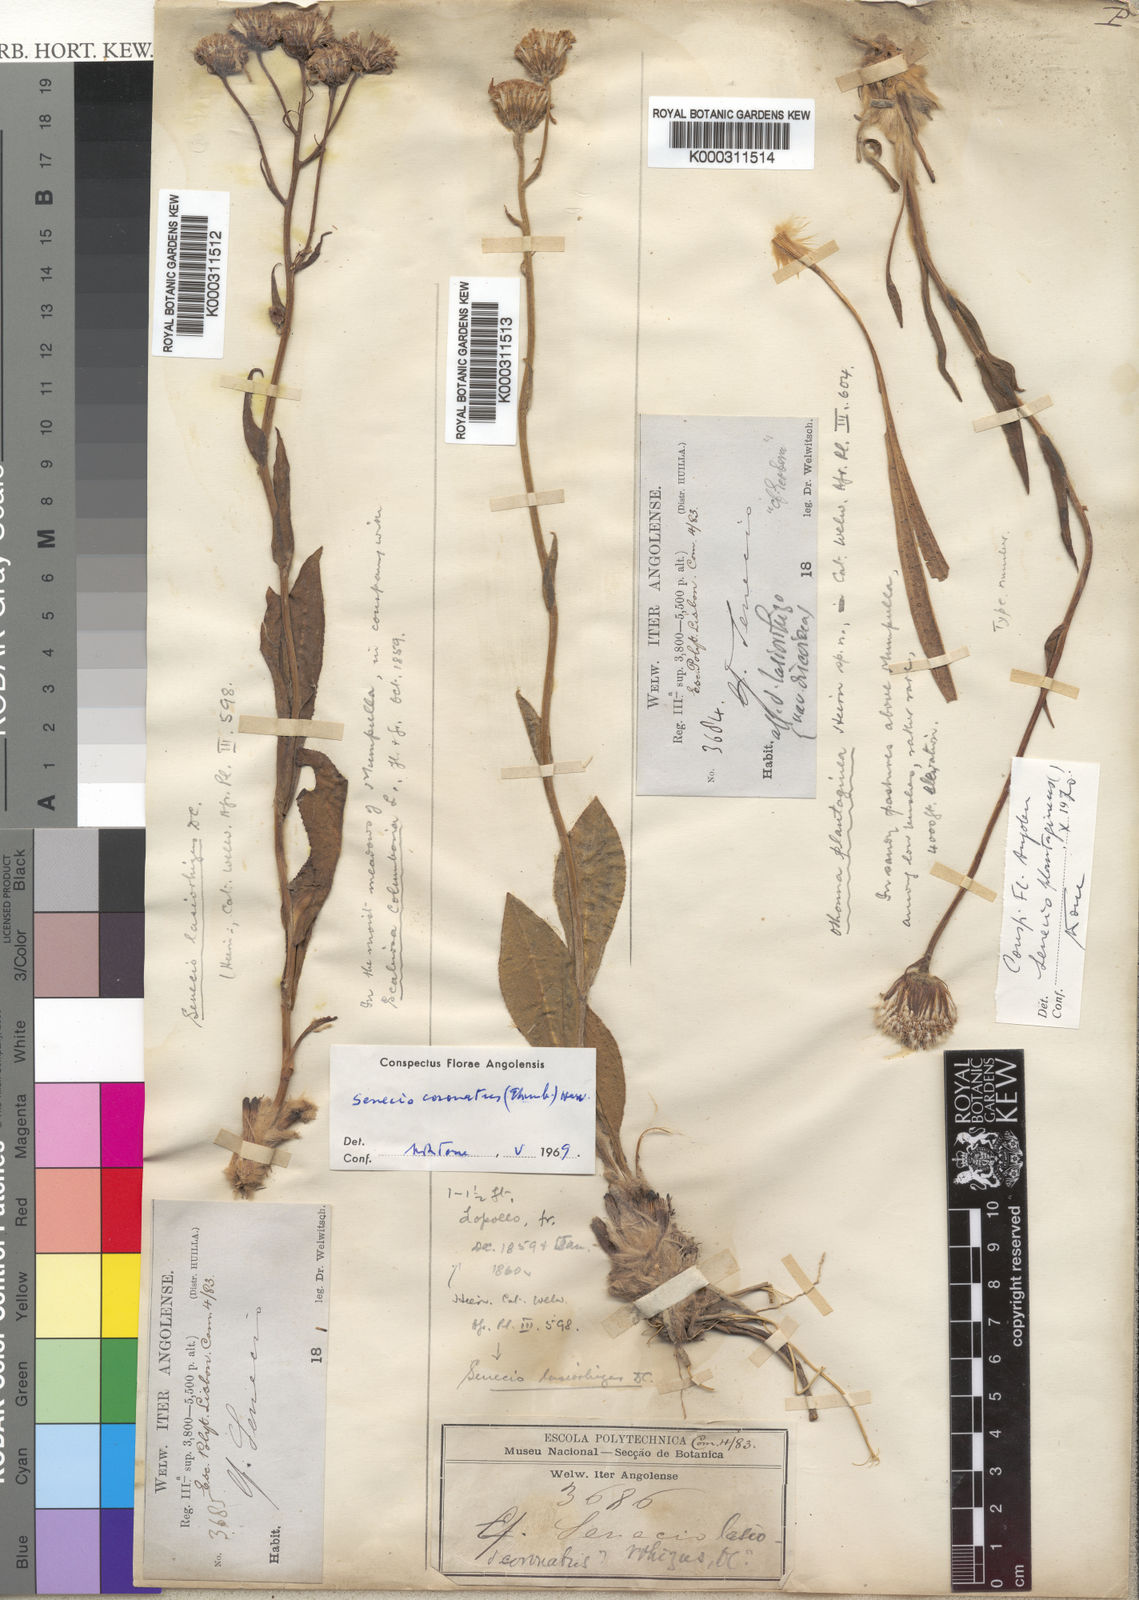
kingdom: Plantae
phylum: Tracheophyta
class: Magnoliopsida
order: Asterales
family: Asteraceae
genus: Senecio
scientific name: Senecio coronatus
